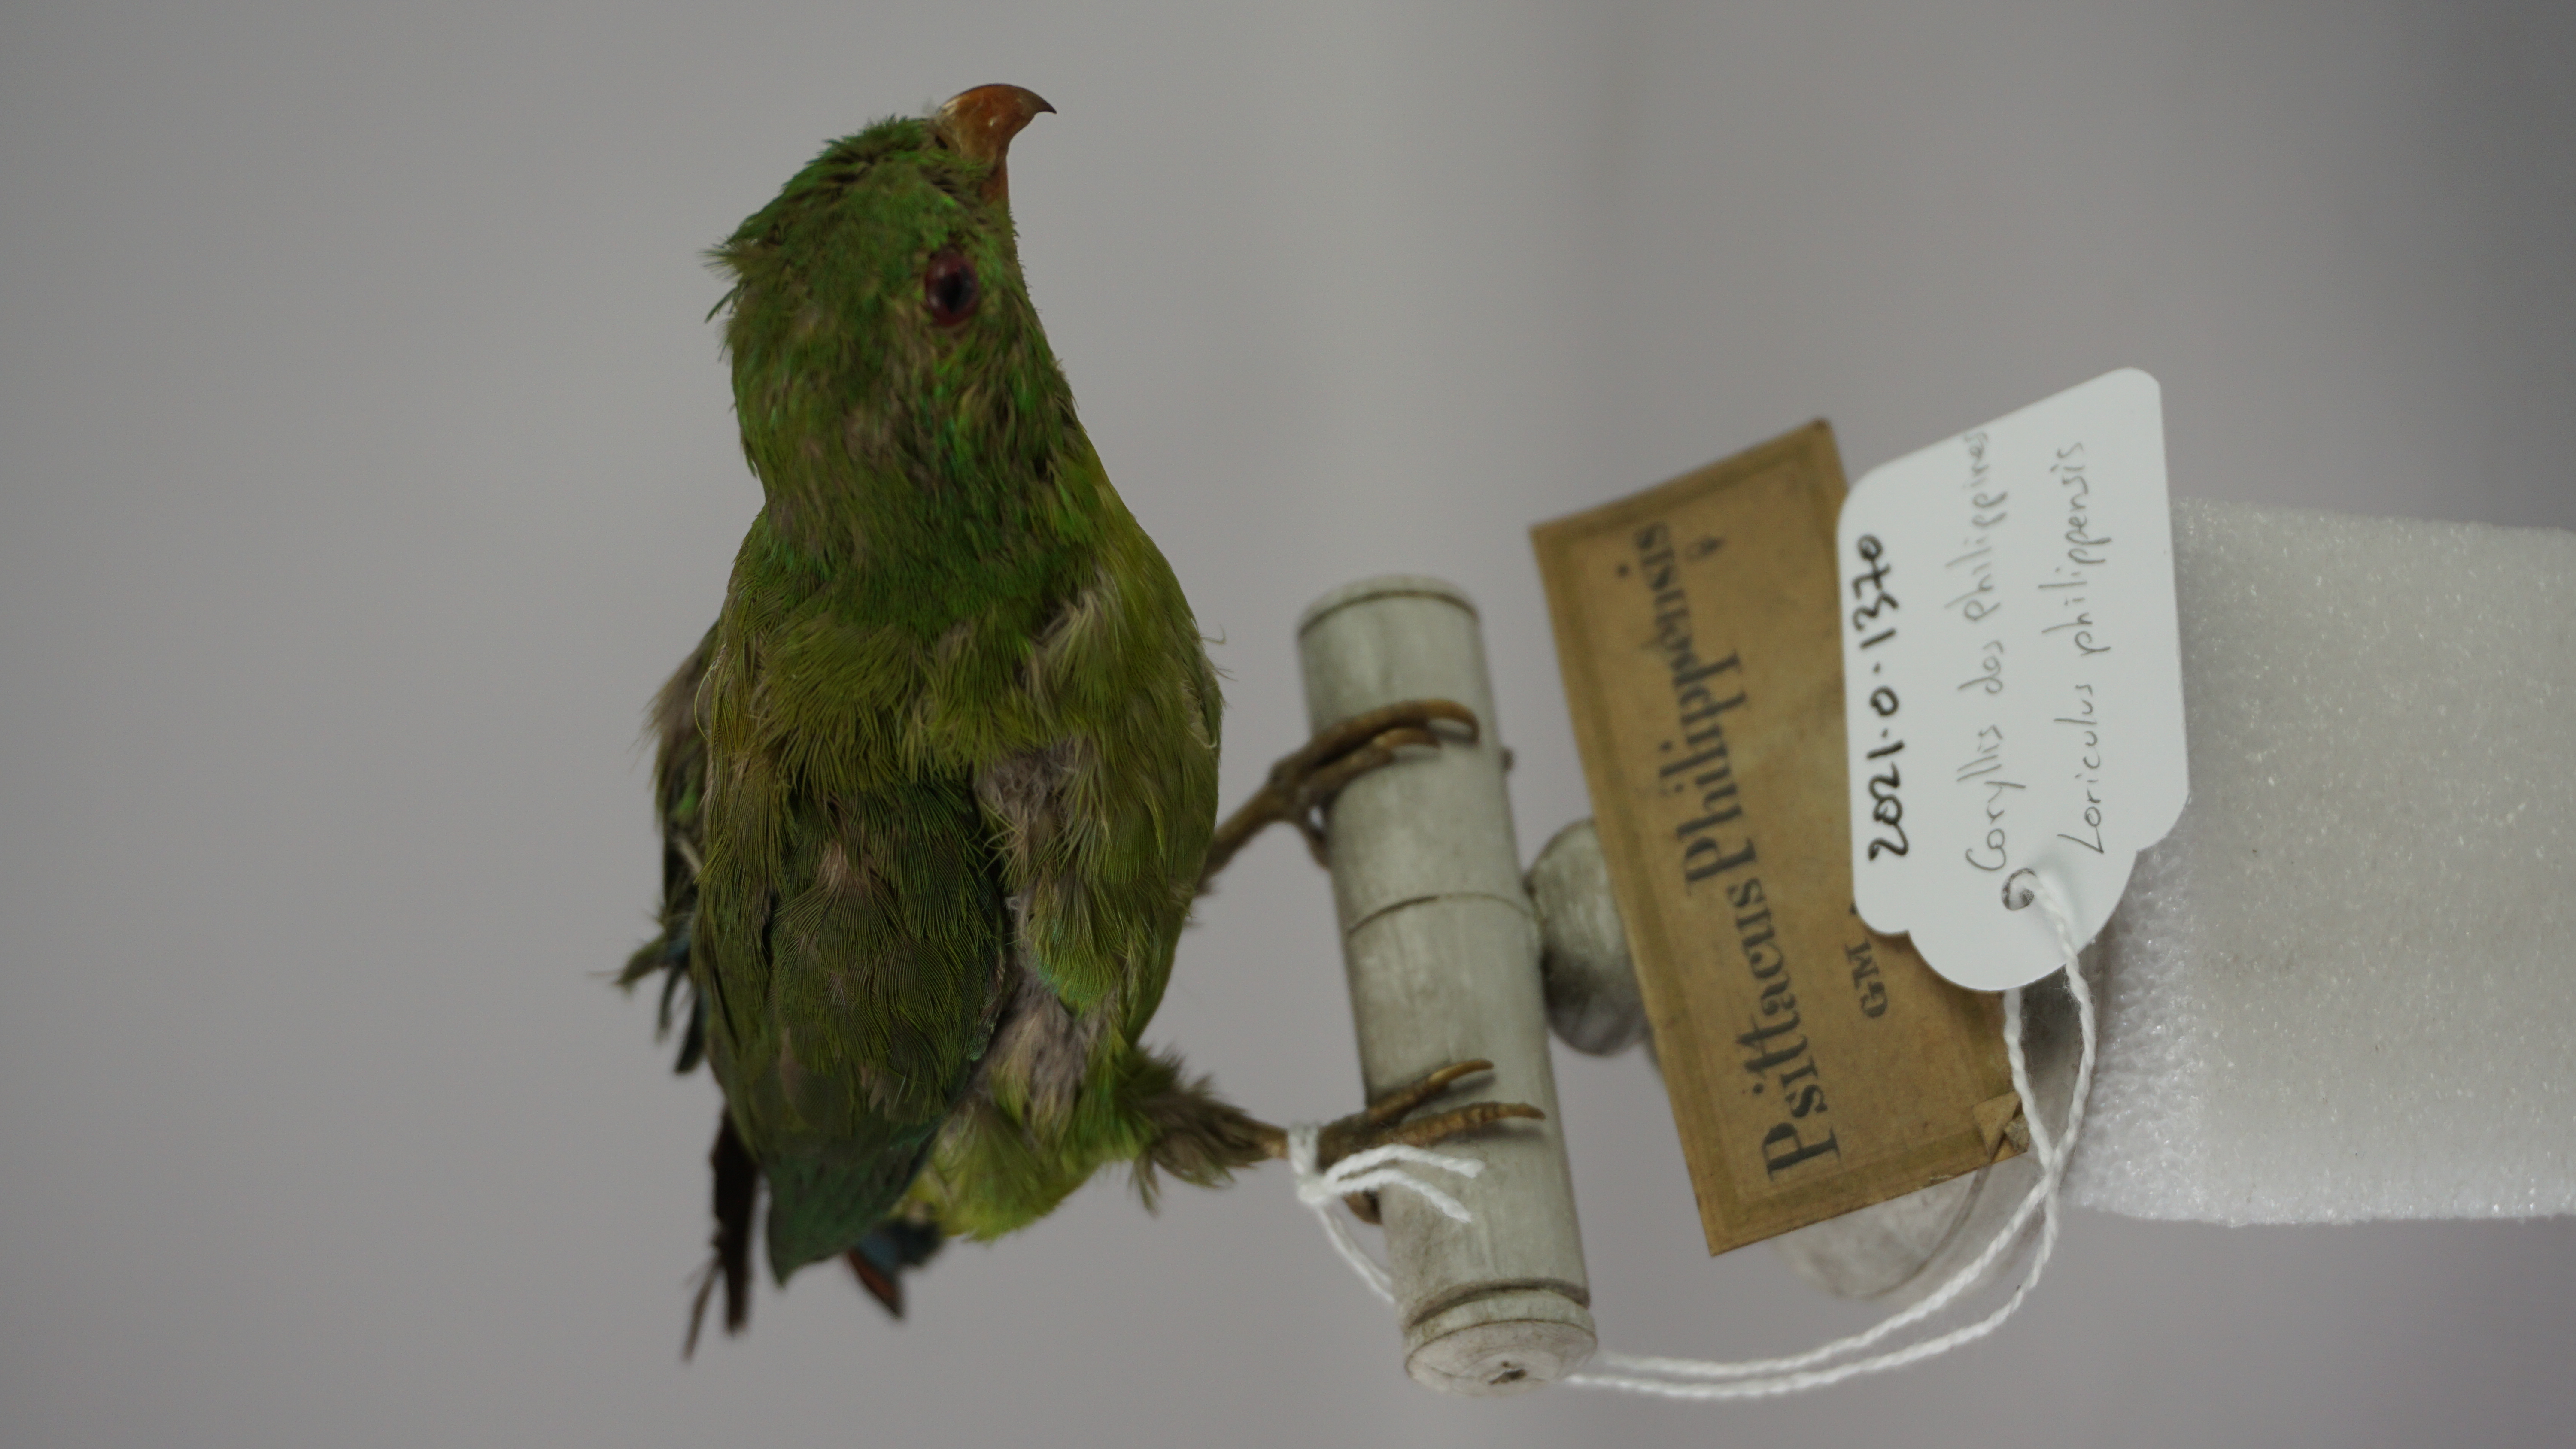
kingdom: Animalia
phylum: Chordata
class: Aves
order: Psittaciformes
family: Psittacidae
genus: Loriculus
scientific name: Loriculus philippensis
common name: Philippine hanging parrot
